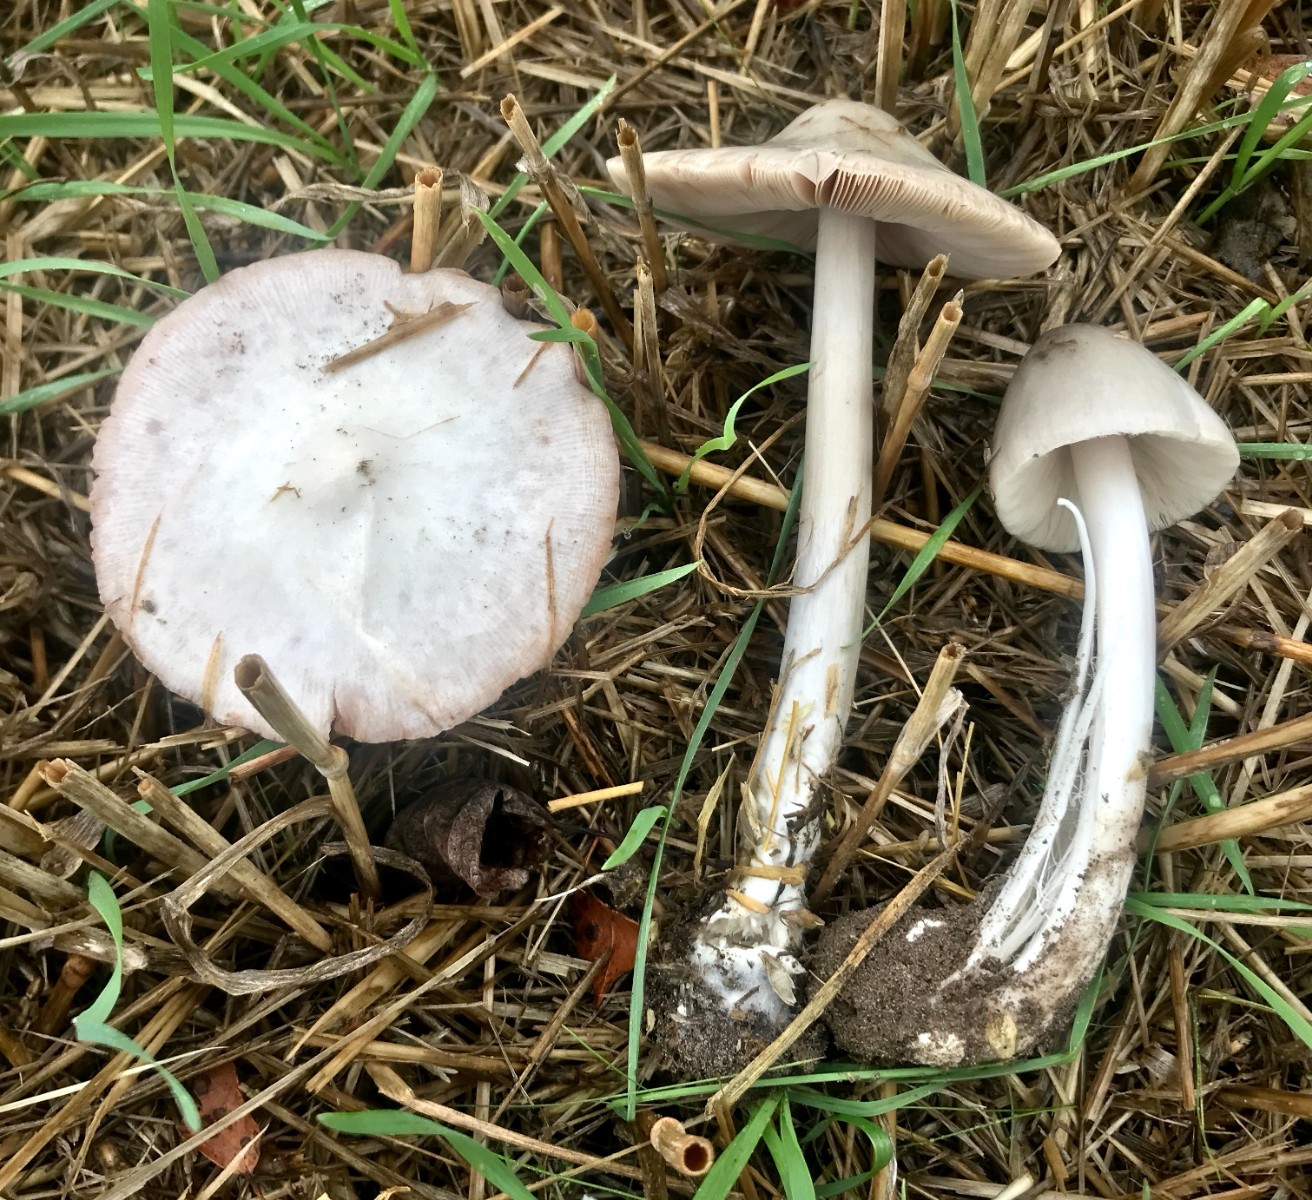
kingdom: Fungi
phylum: Basidiomycota
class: Agaricomycetes
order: Agaricales
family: Pluteaceae
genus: Volvopluteus
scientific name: Volvopluteus gloiocephalus
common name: høj posesvamp
